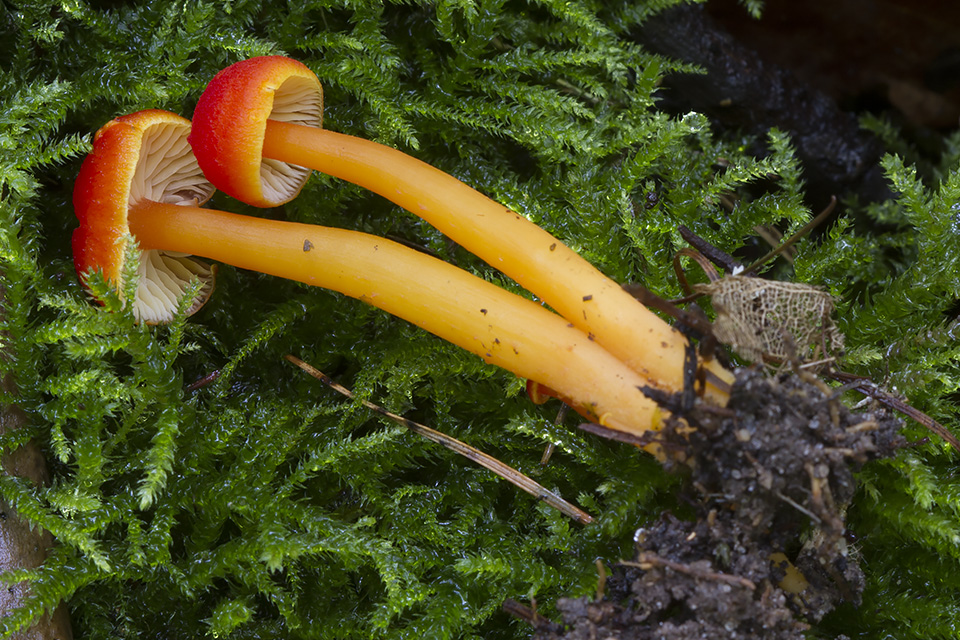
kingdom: Fungi
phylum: Basidiomycota
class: Agaricomycetes
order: Agaricales
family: Hygrophoraceae
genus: Hygrocybe
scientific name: Hygrocybe miniata
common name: mønje-vokshat
